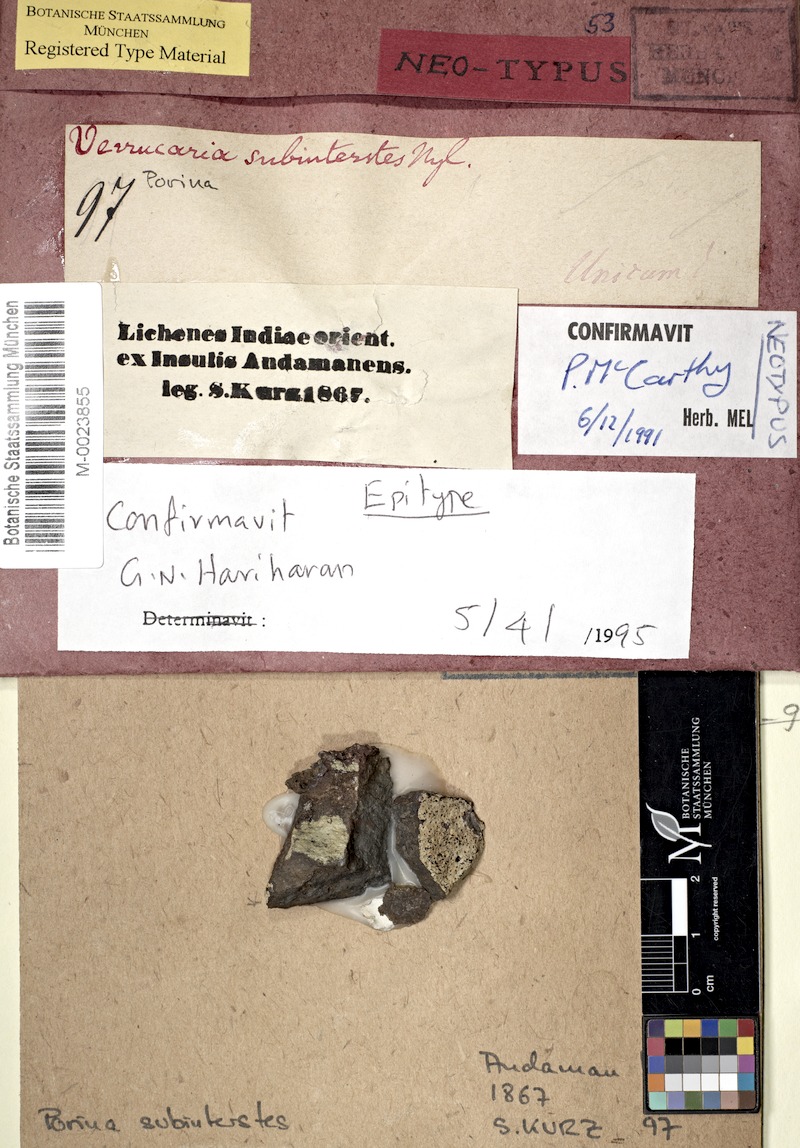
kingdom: Fungi
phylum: Ascomycota
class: Lecanoromycetes
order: Ostropales
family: Porinaceae
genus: Porina
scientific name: Porina subinterstes
